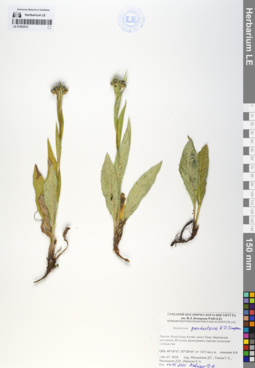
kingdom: Plantae
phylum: Tracheophyta
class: Magnoliopsida
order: Asterales
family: Asteraceae
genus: Saussurea
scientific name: Saussurea pseudoalpina
